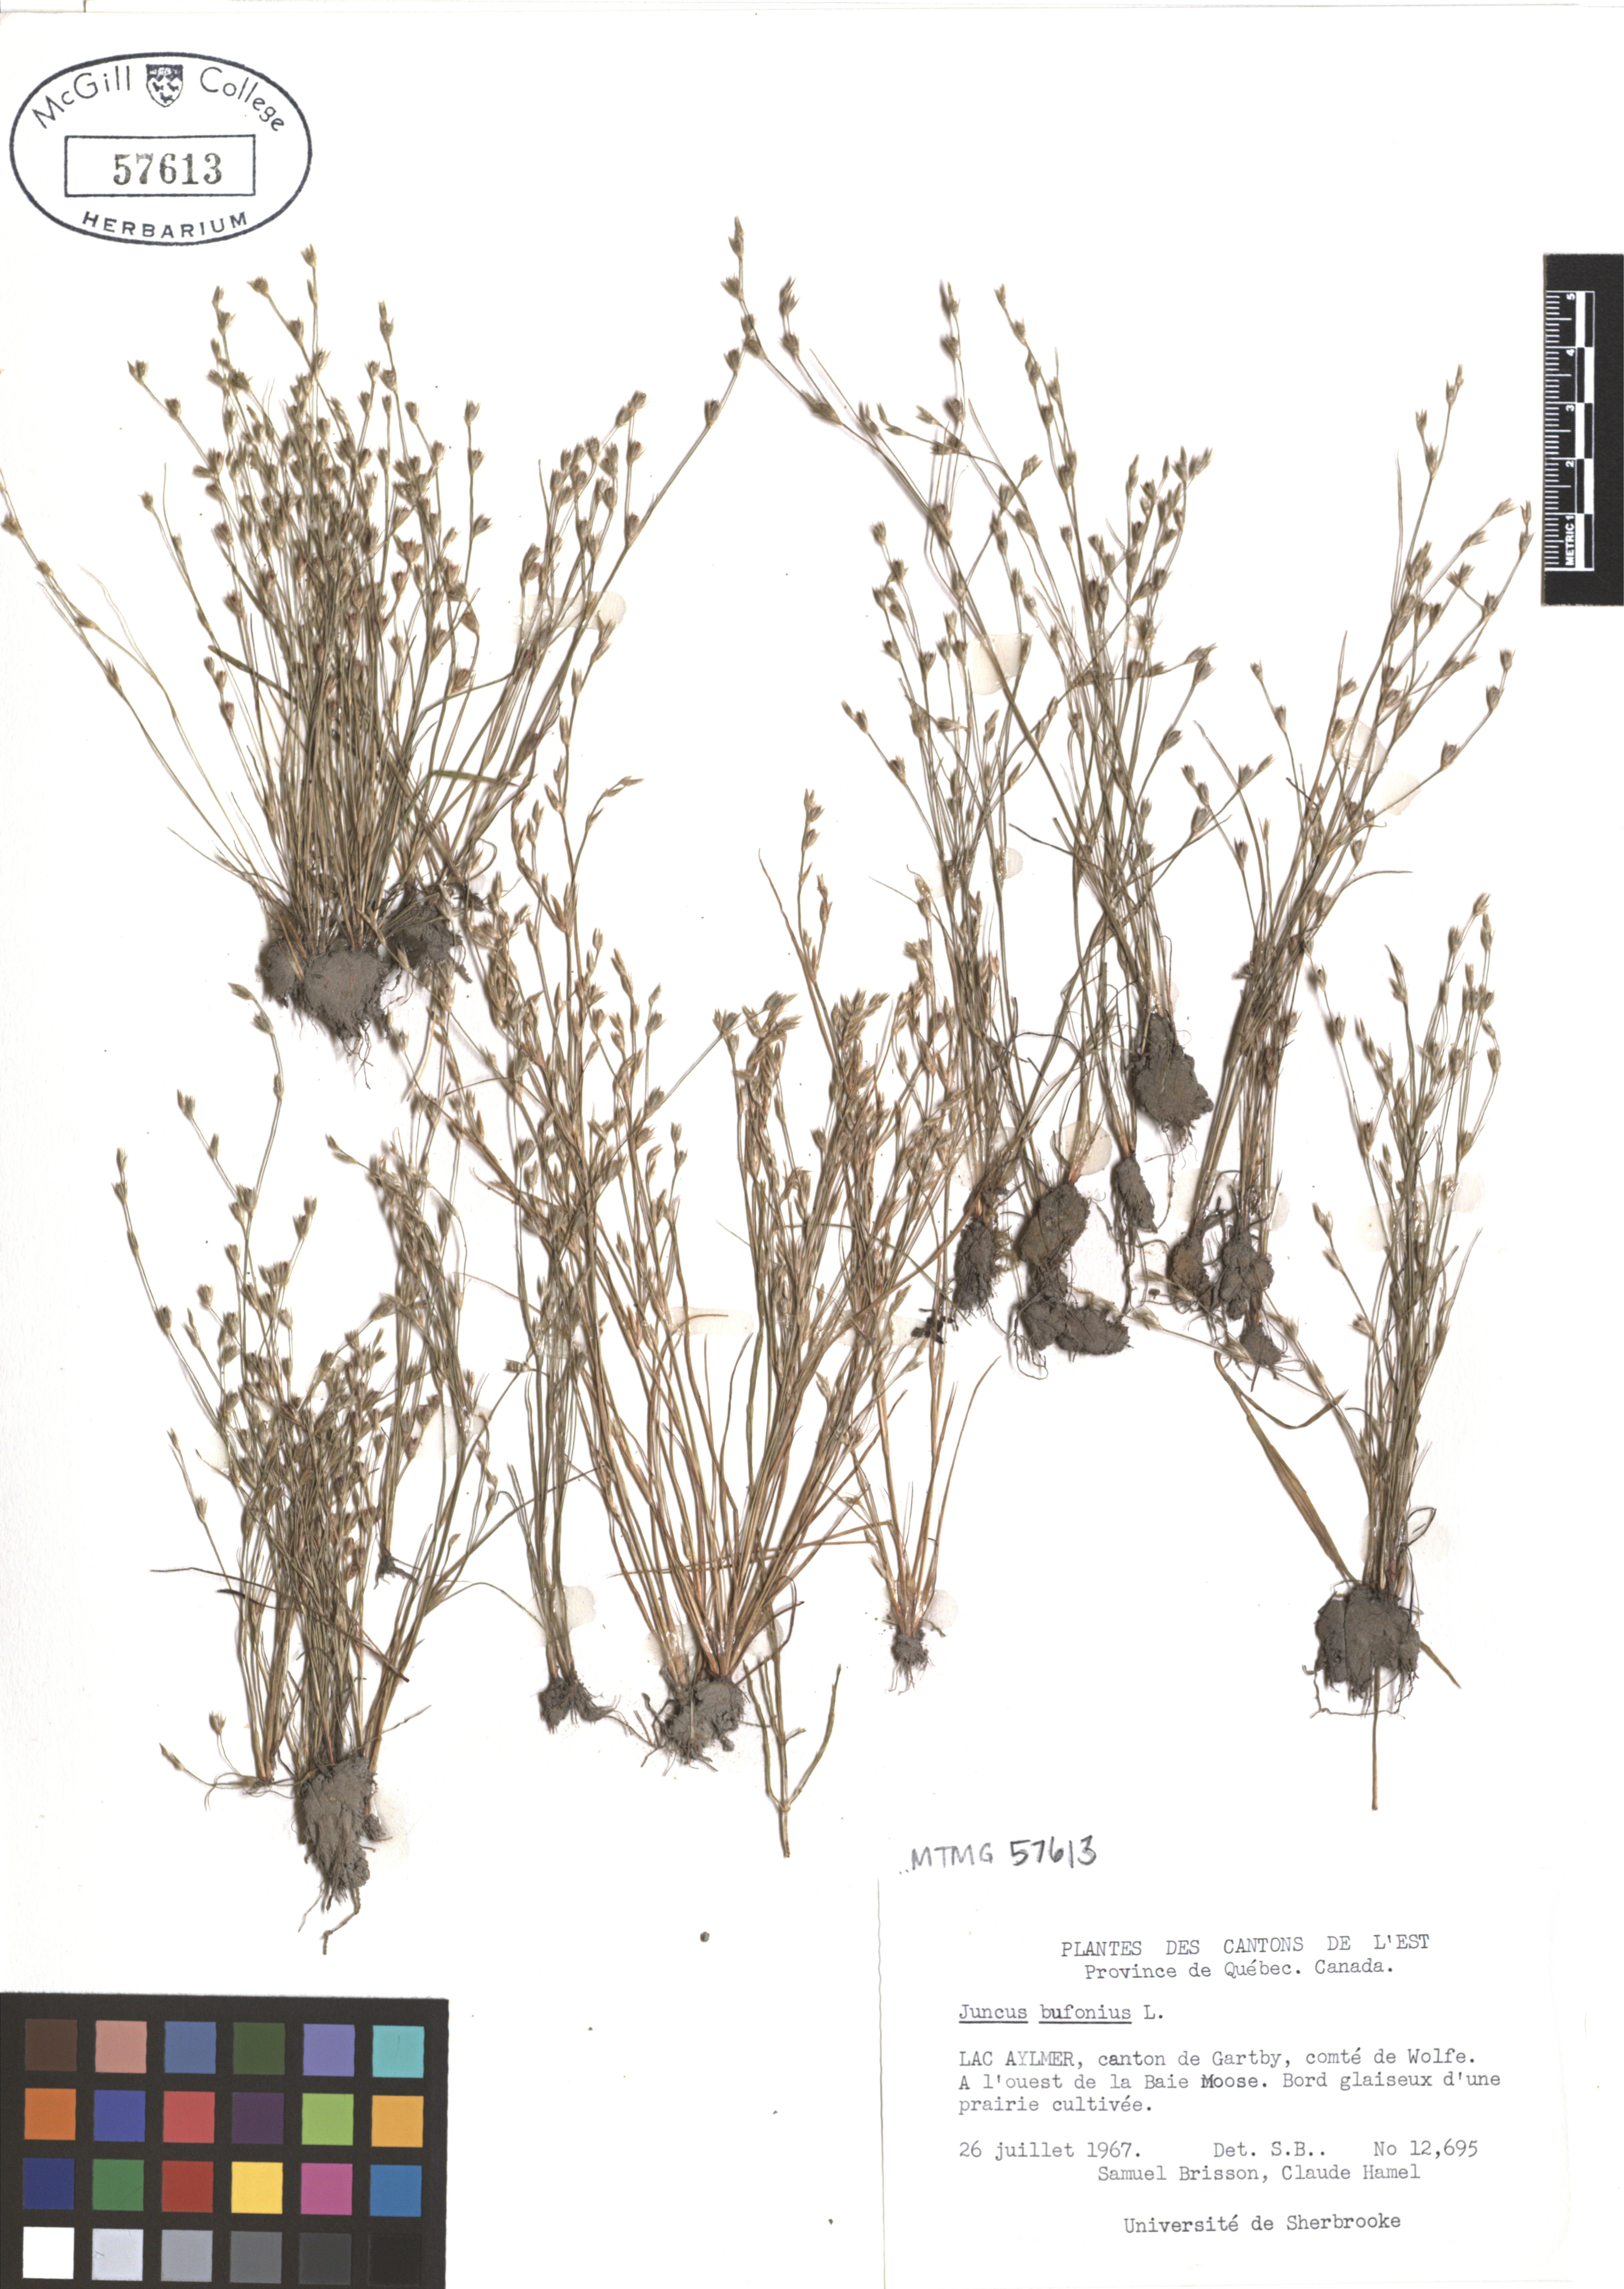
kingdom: Plantae
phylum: Tracheophyta
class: Liliopsida
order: Poales
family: Juncaceae
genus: Juncus
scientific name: Juncus bufonius
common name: Toad rush
